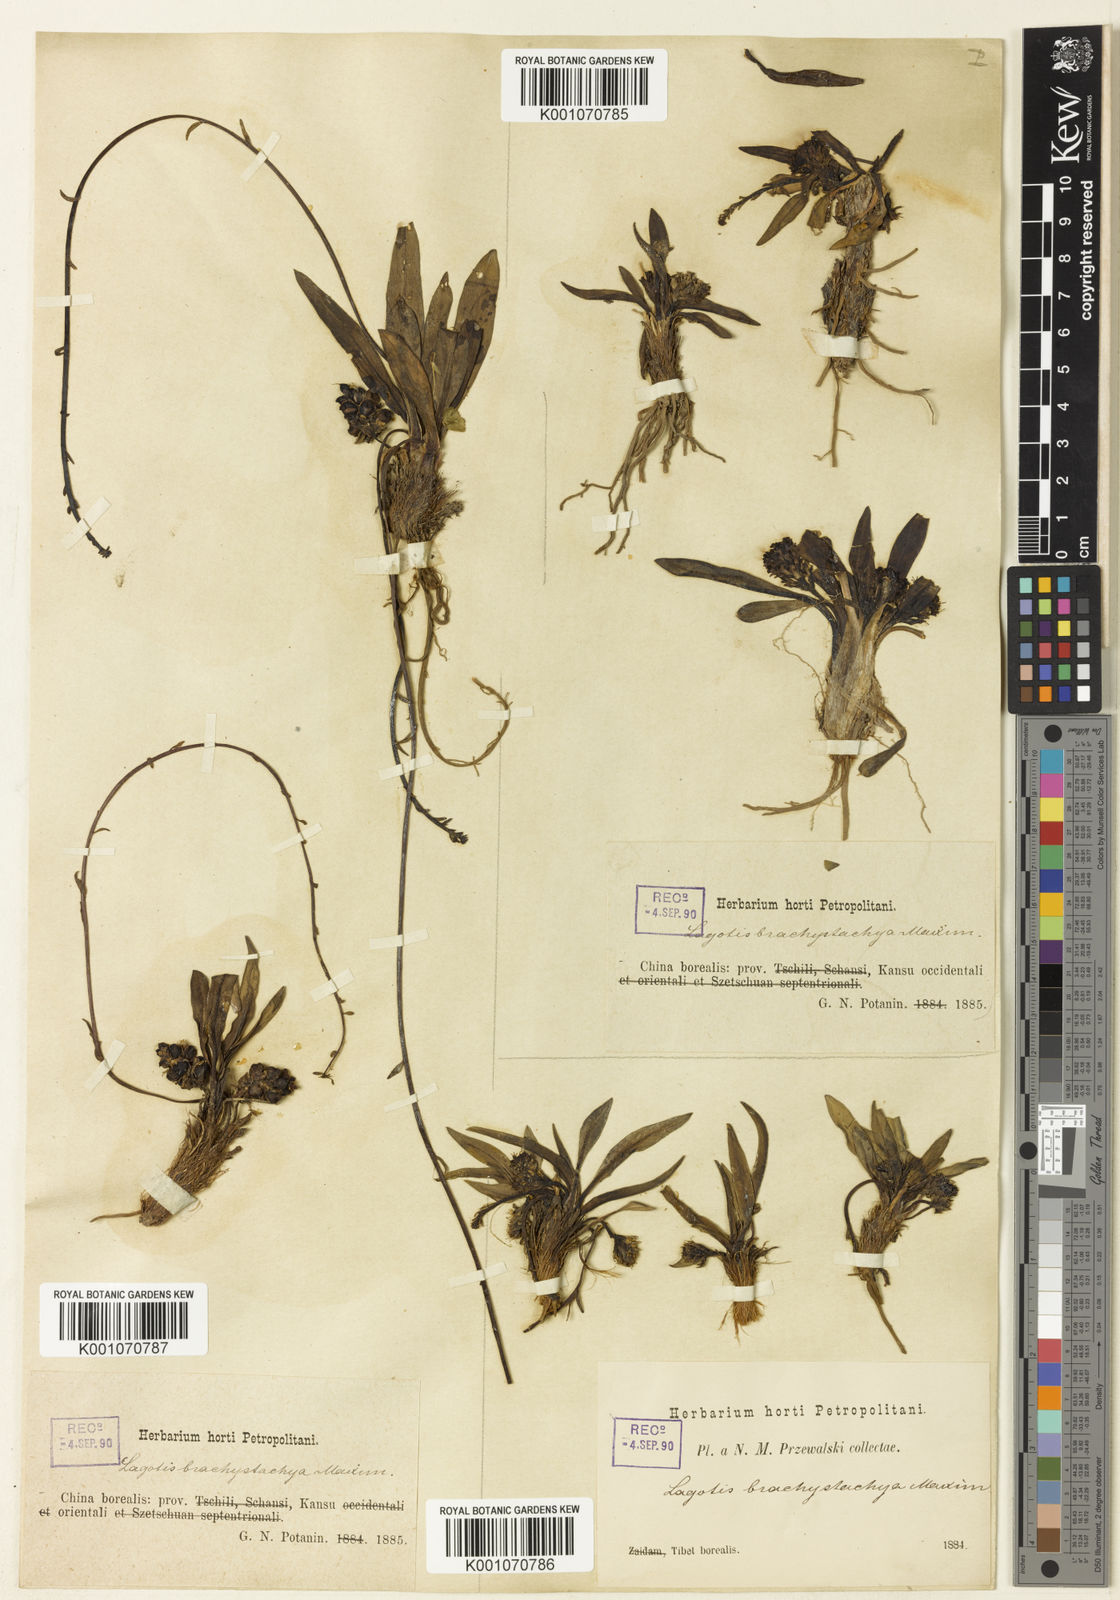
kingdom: Plantae
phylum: Tracheophyta
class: Magnoliopsida
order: Lamiales
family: Plantaginaceae
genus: Lagotis
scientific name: Lagotis brachystachya
